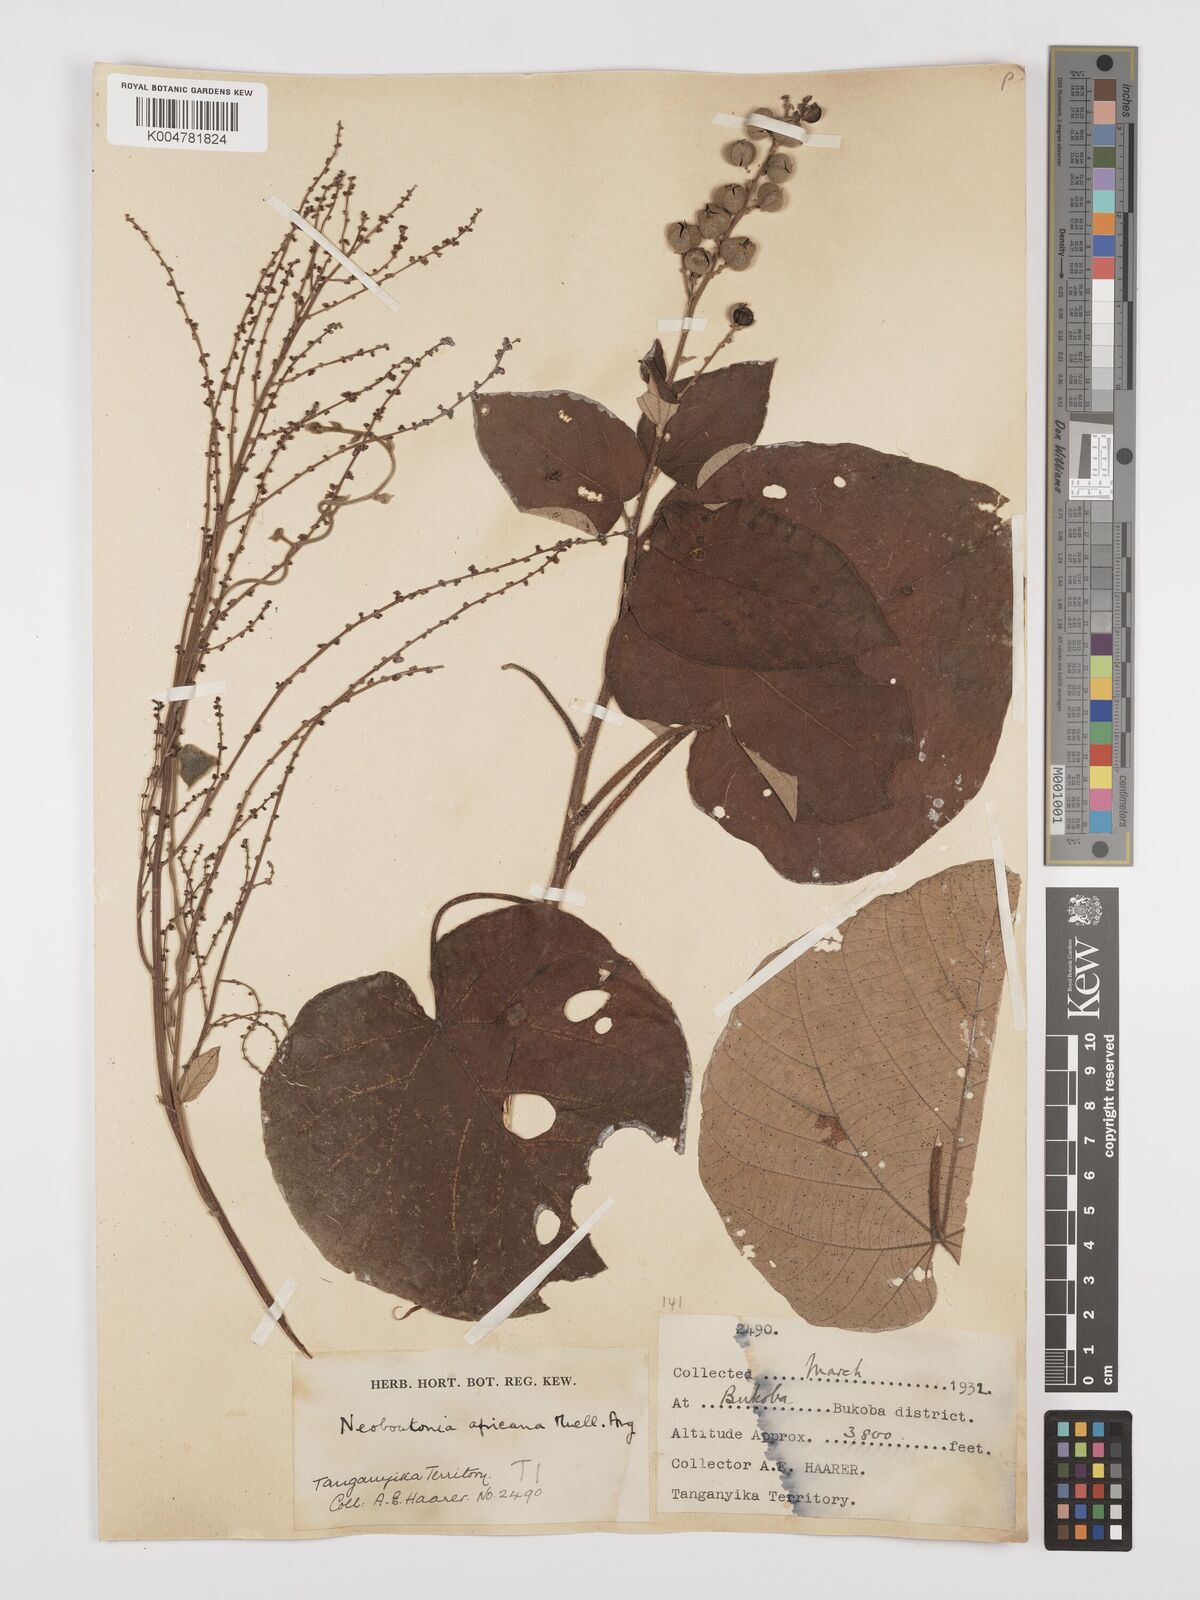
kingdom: Plantae
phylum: Tracheophyta
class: Magnoliopsida
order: Malpighiales
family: Euphorbiaceae
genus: Neoboutonia
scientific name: Neoboutonia melleri
